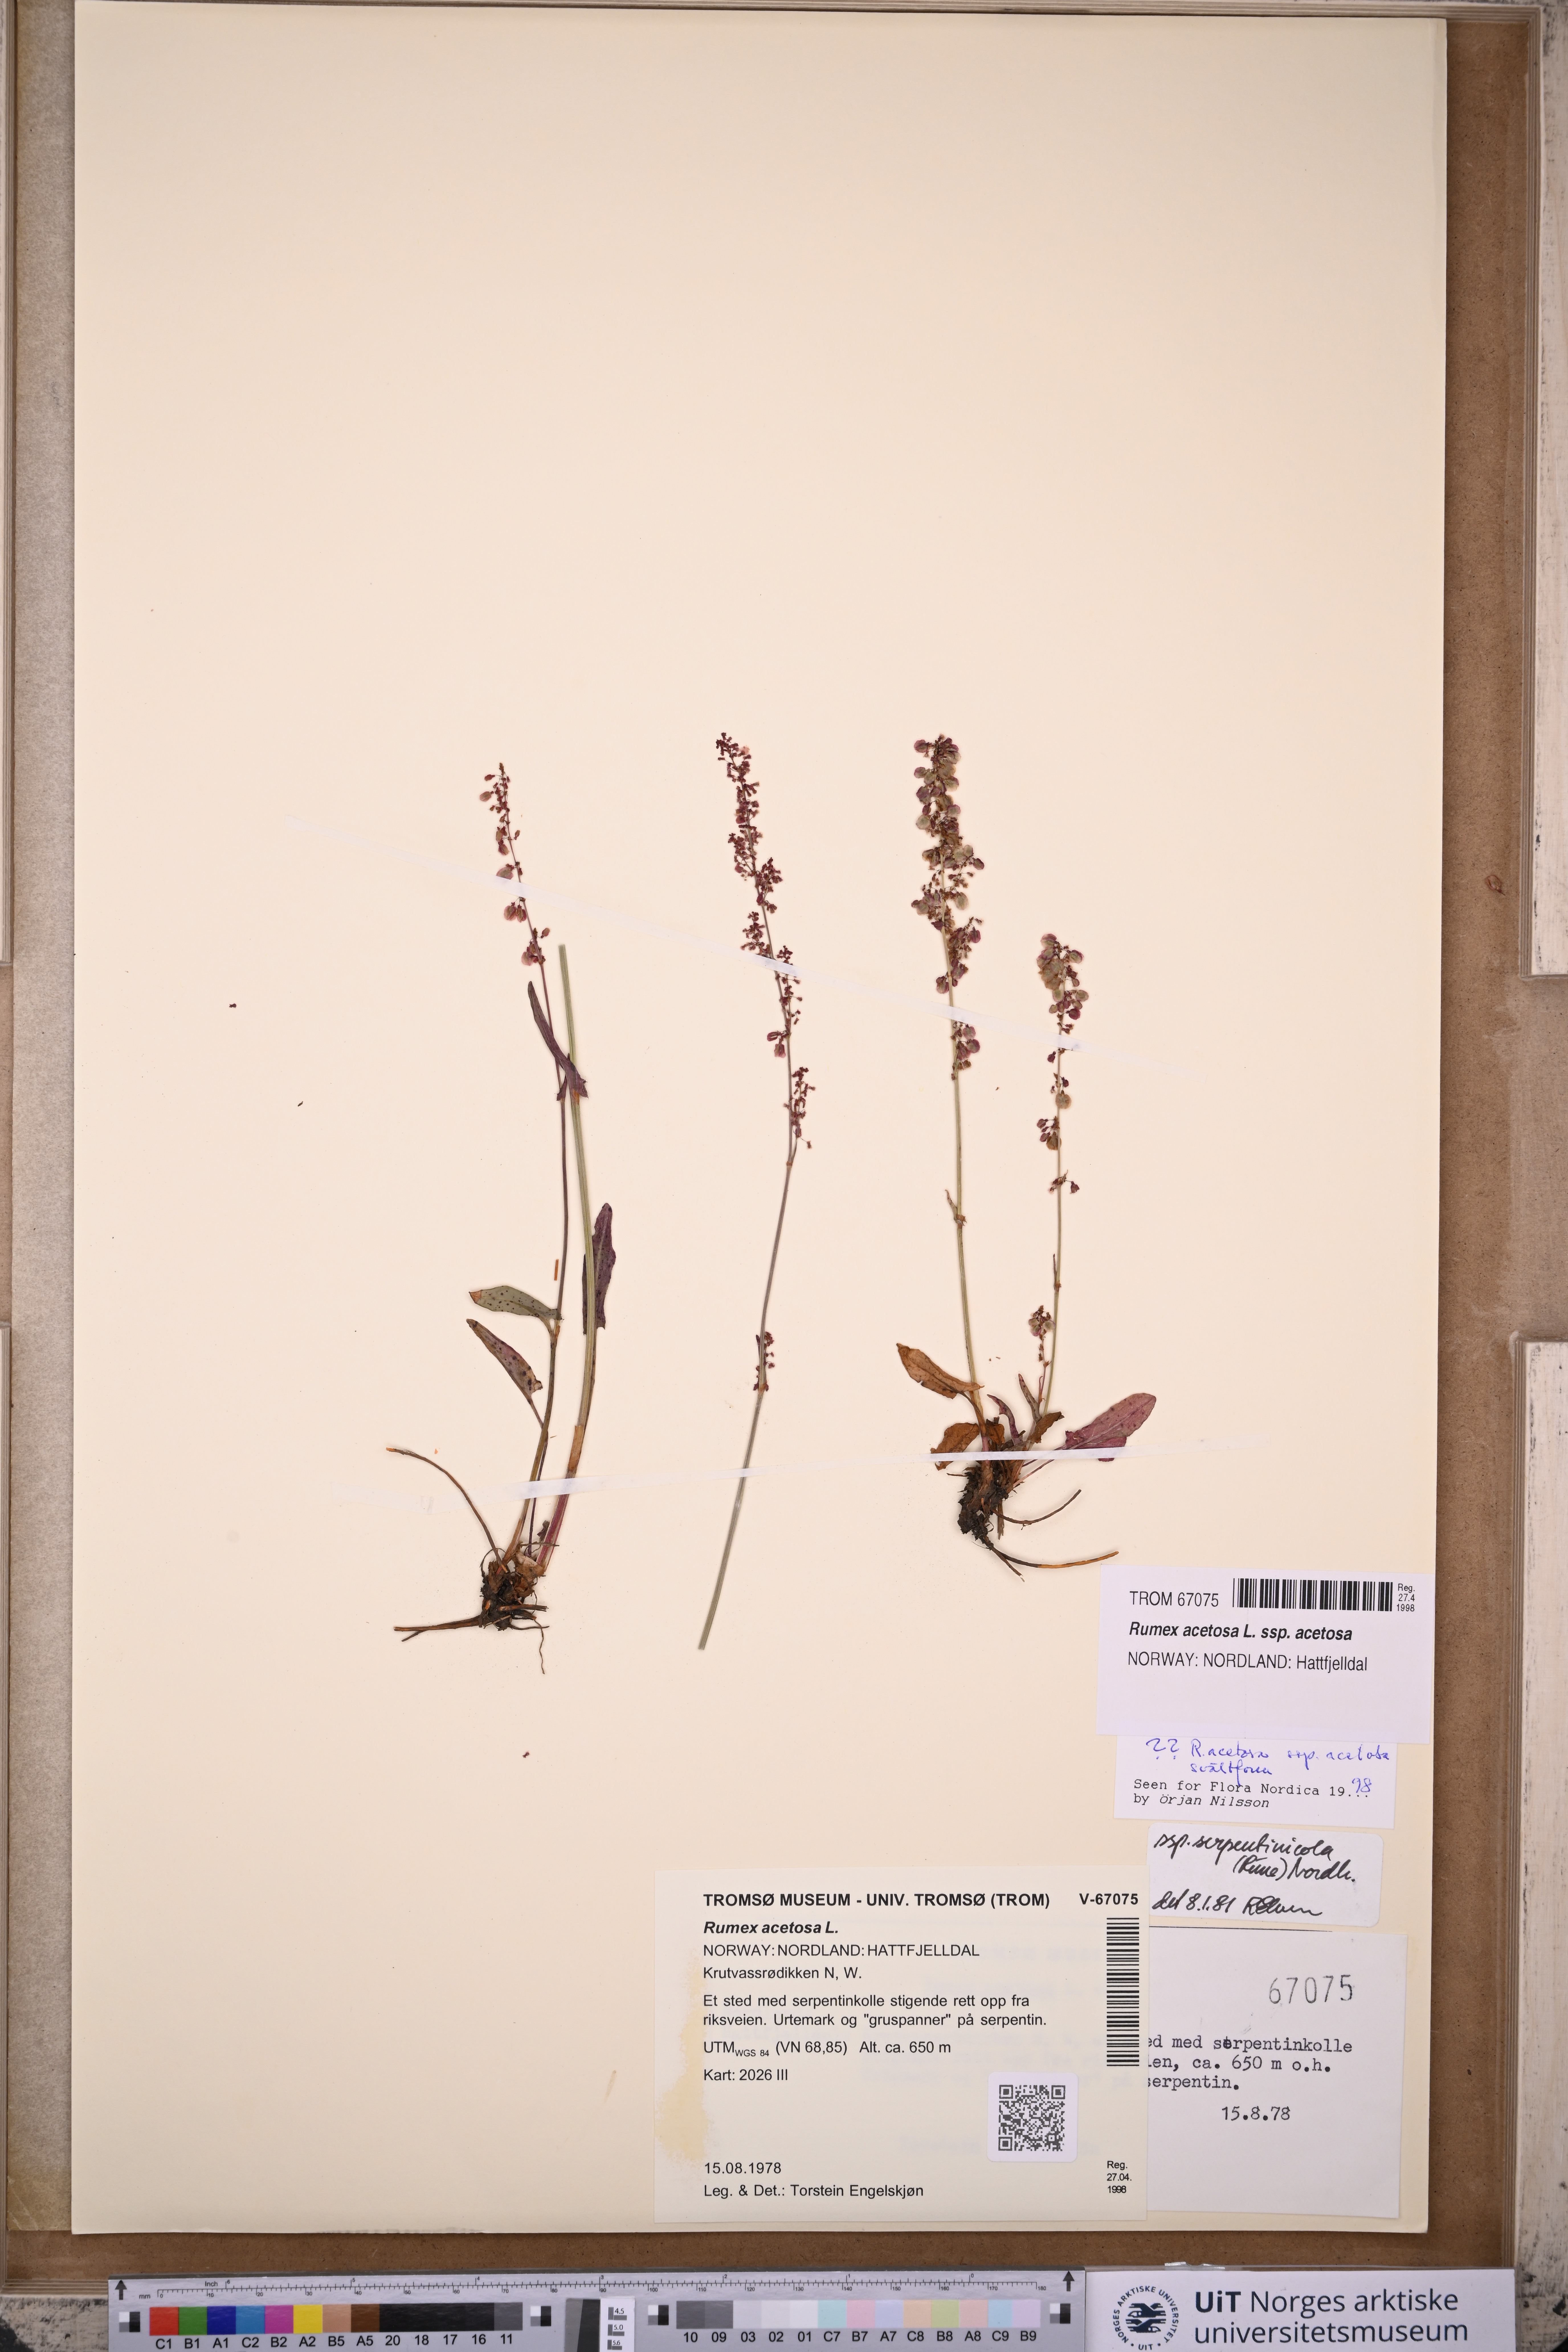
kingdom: Plantae
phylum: Tracheophyta
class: Magnoliopsida
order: Caryophyllales
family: Polygonaceae
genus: Rumex
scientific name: Rumex acetosa
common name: Garden sorrel
